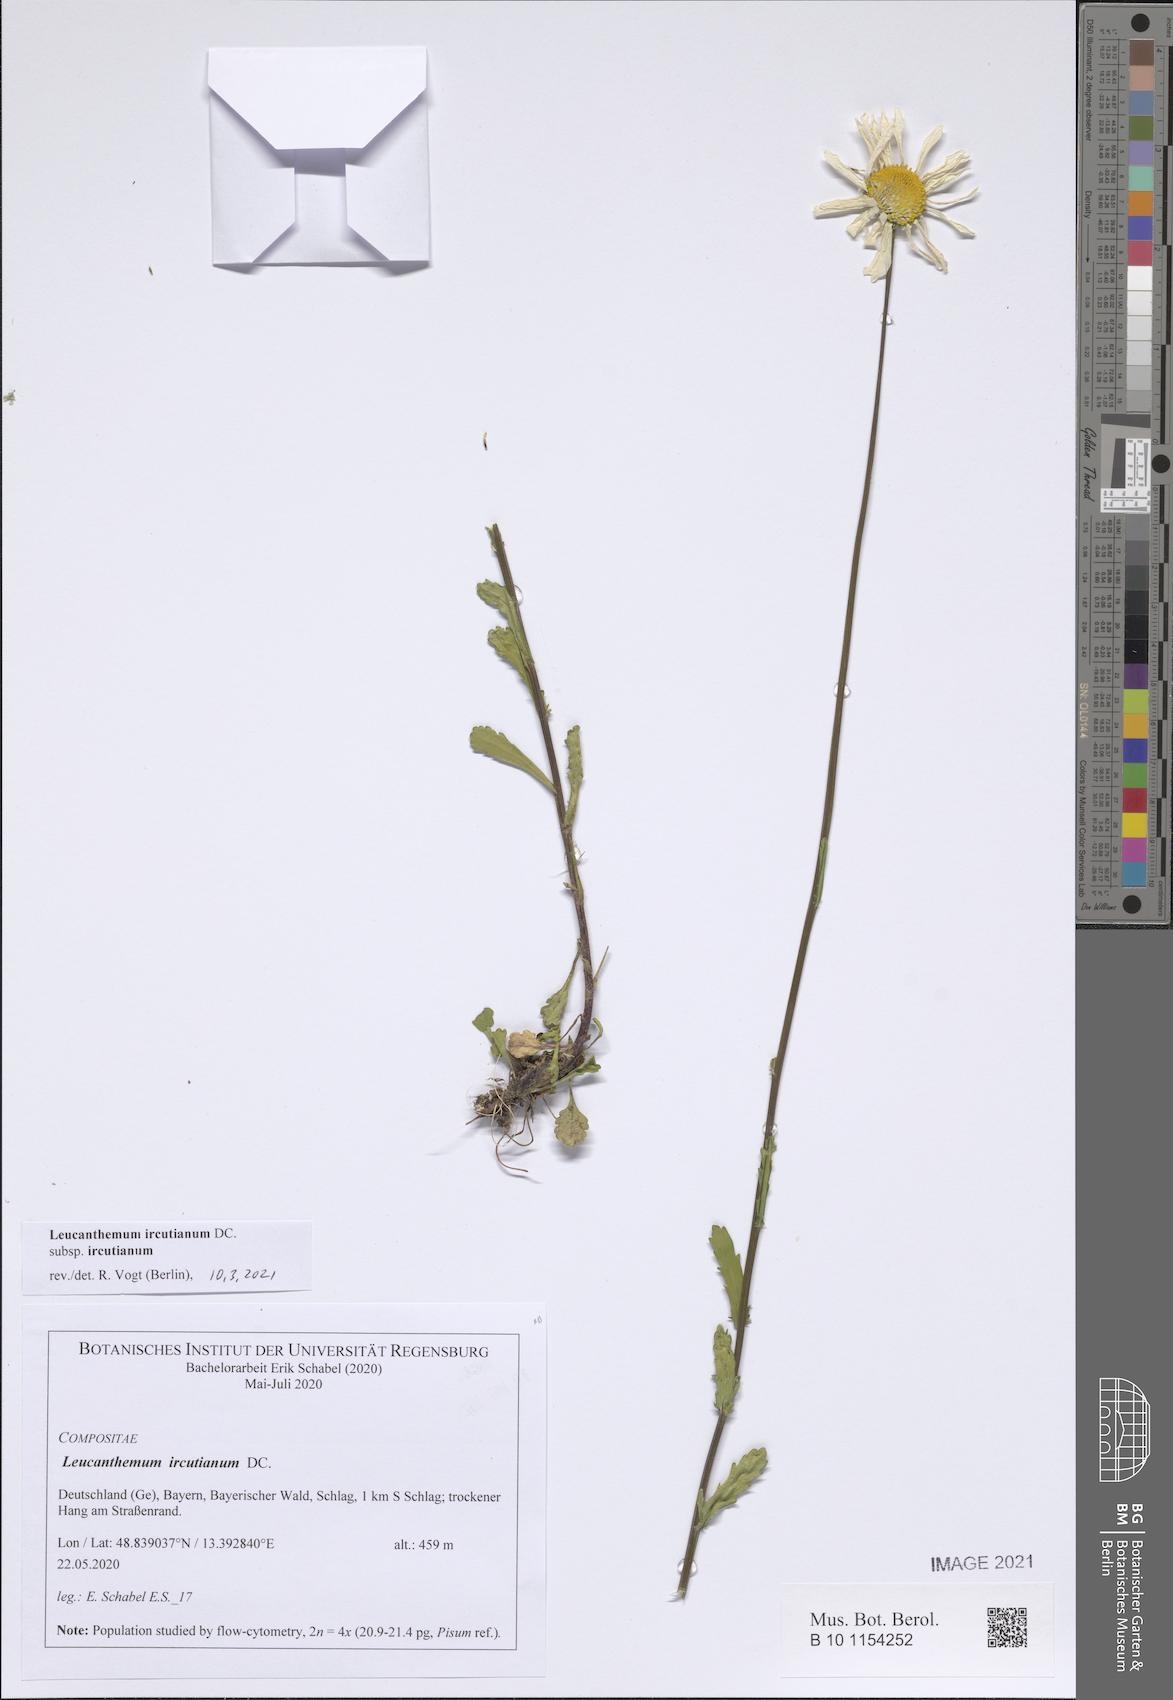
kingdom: Plantae
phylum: Tracheophyta
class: Magnoliopsida
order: Asterales
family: Asteraceae
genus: Leucanthemum
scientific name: Leucanthemum ircutianum
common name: Daisy
